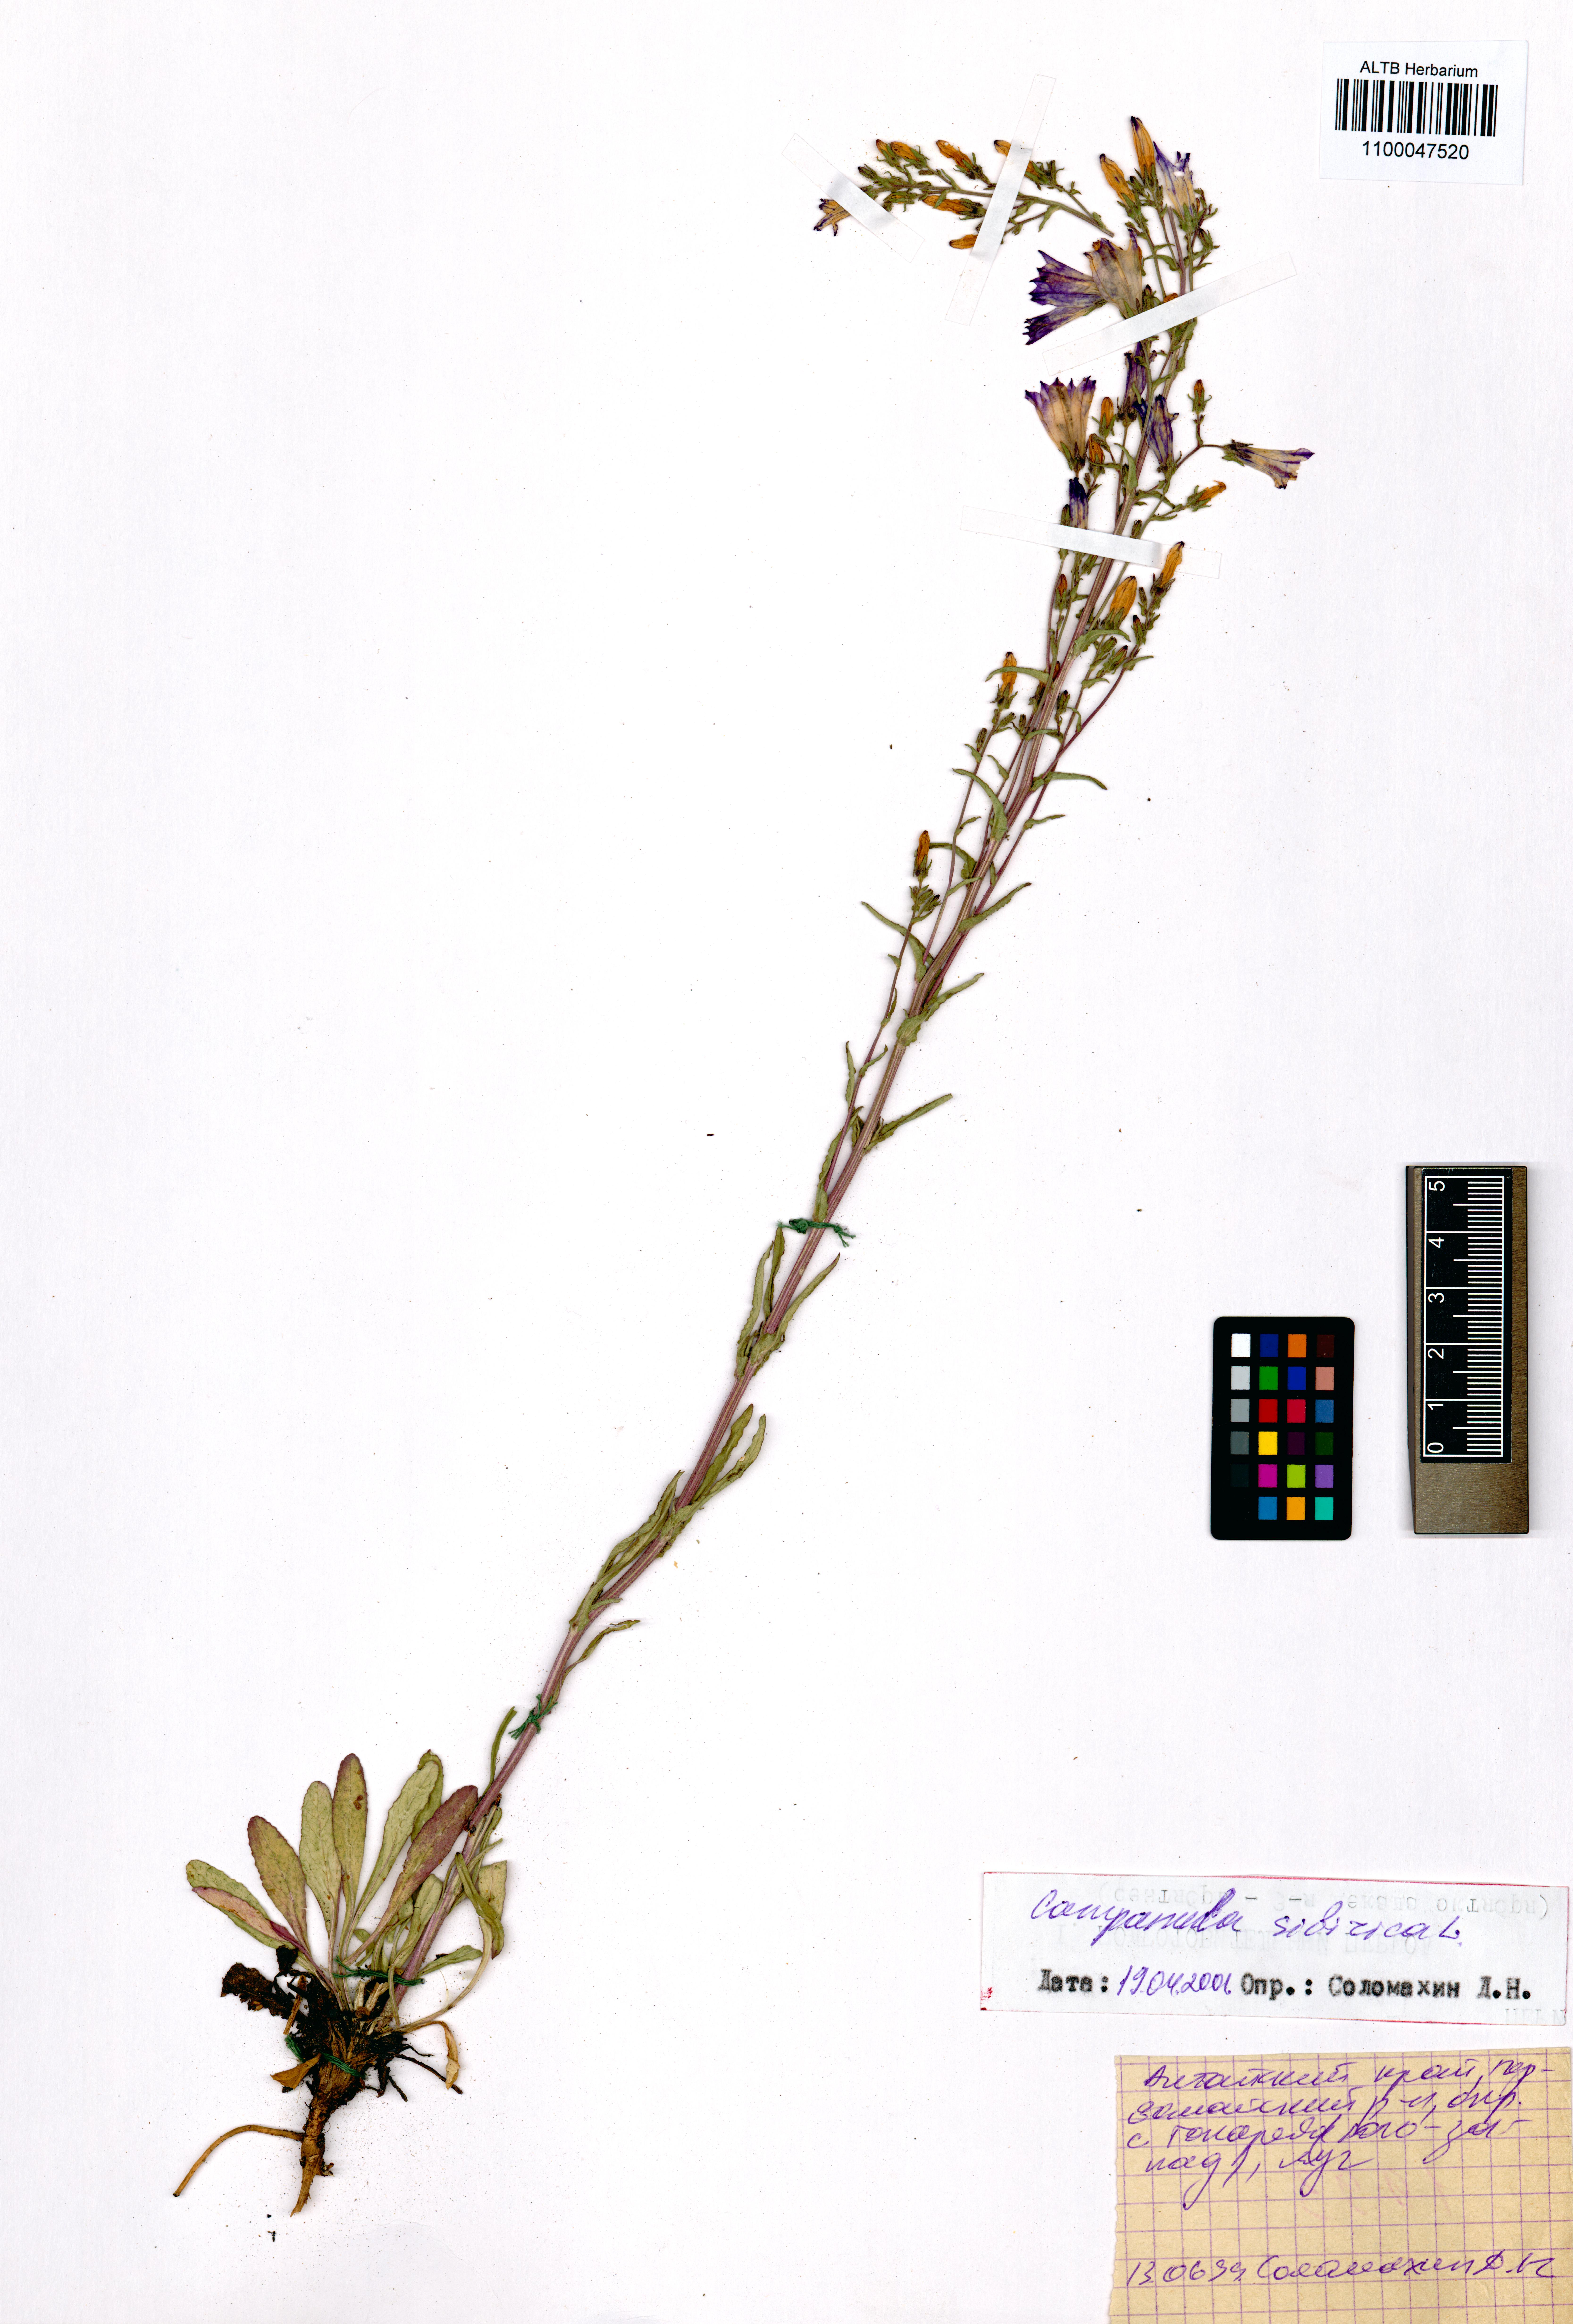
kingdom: Plantae
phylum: Tracheophyta
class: Magnoliopsida
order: Asterales
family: Campanulaceae
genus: Campanula
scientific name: Campanula sibirica
